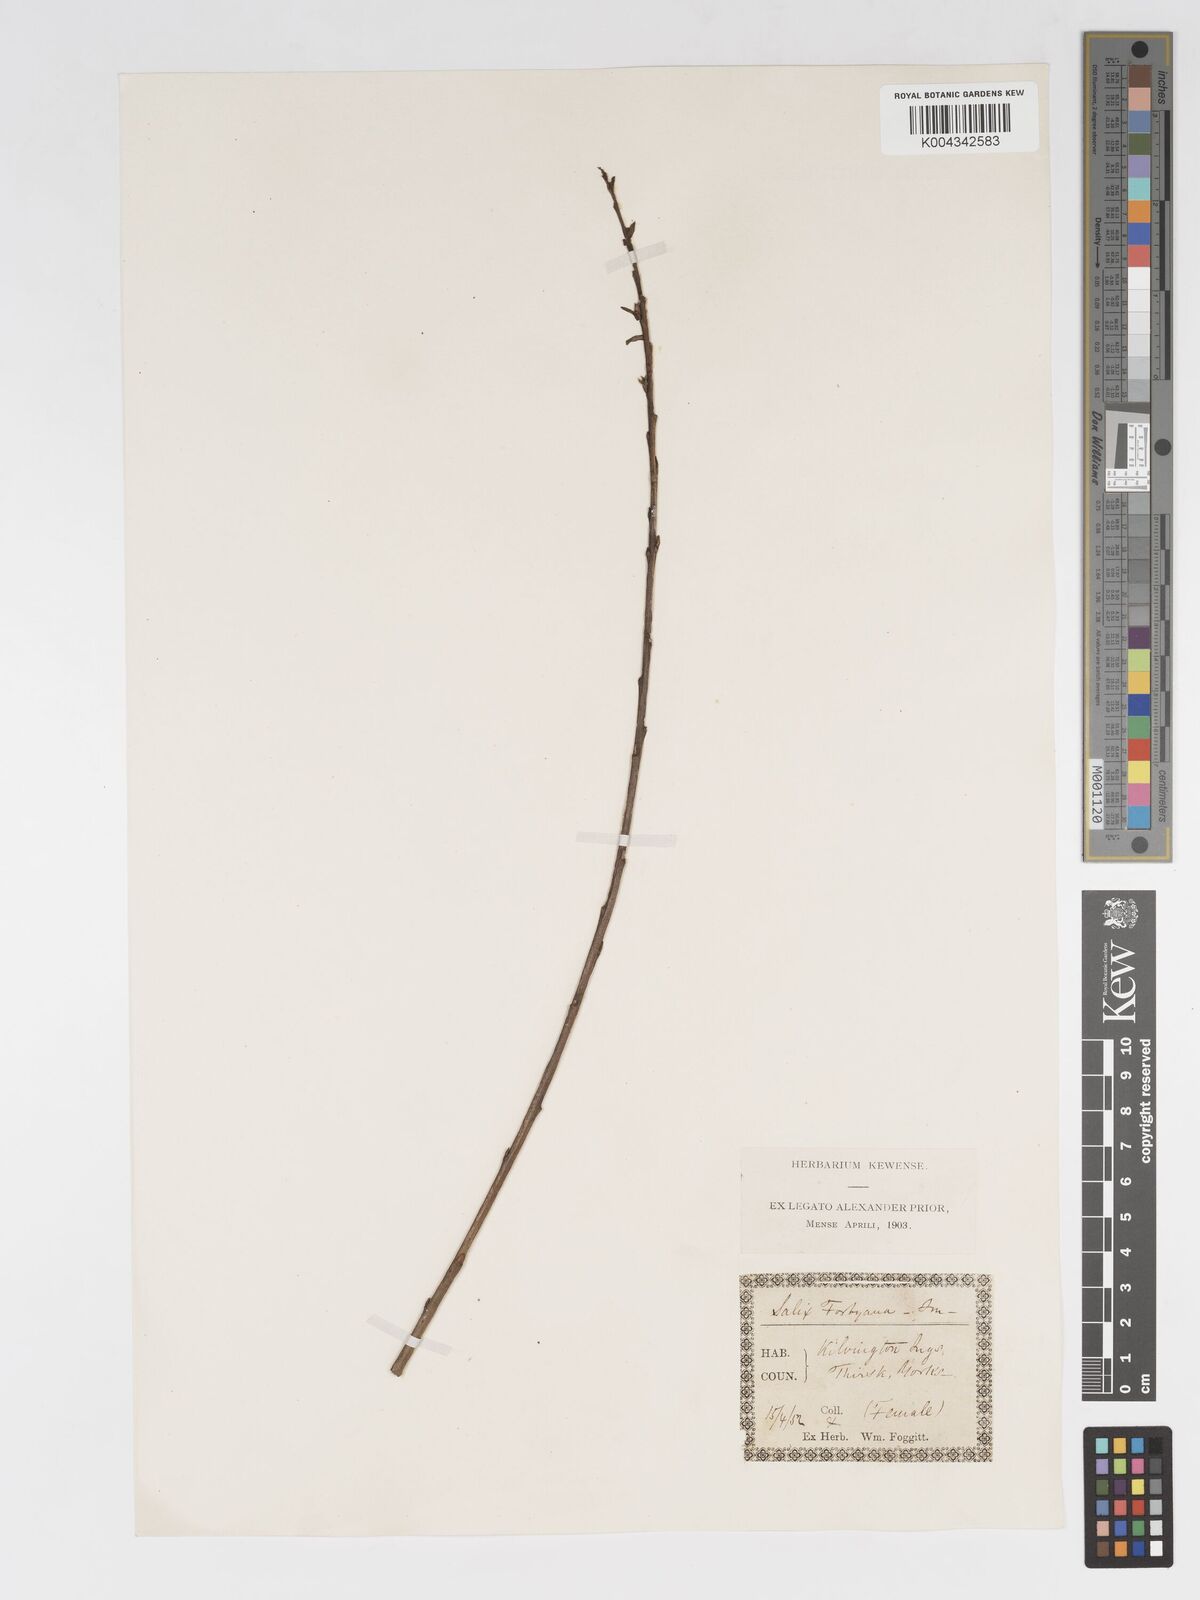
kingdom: Plantae
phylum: Tracheophyta
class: Magnoliopsida
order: Malpighiales
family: Salicaceae
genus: Salix
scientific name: Salix cinerea
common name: Common sallow
